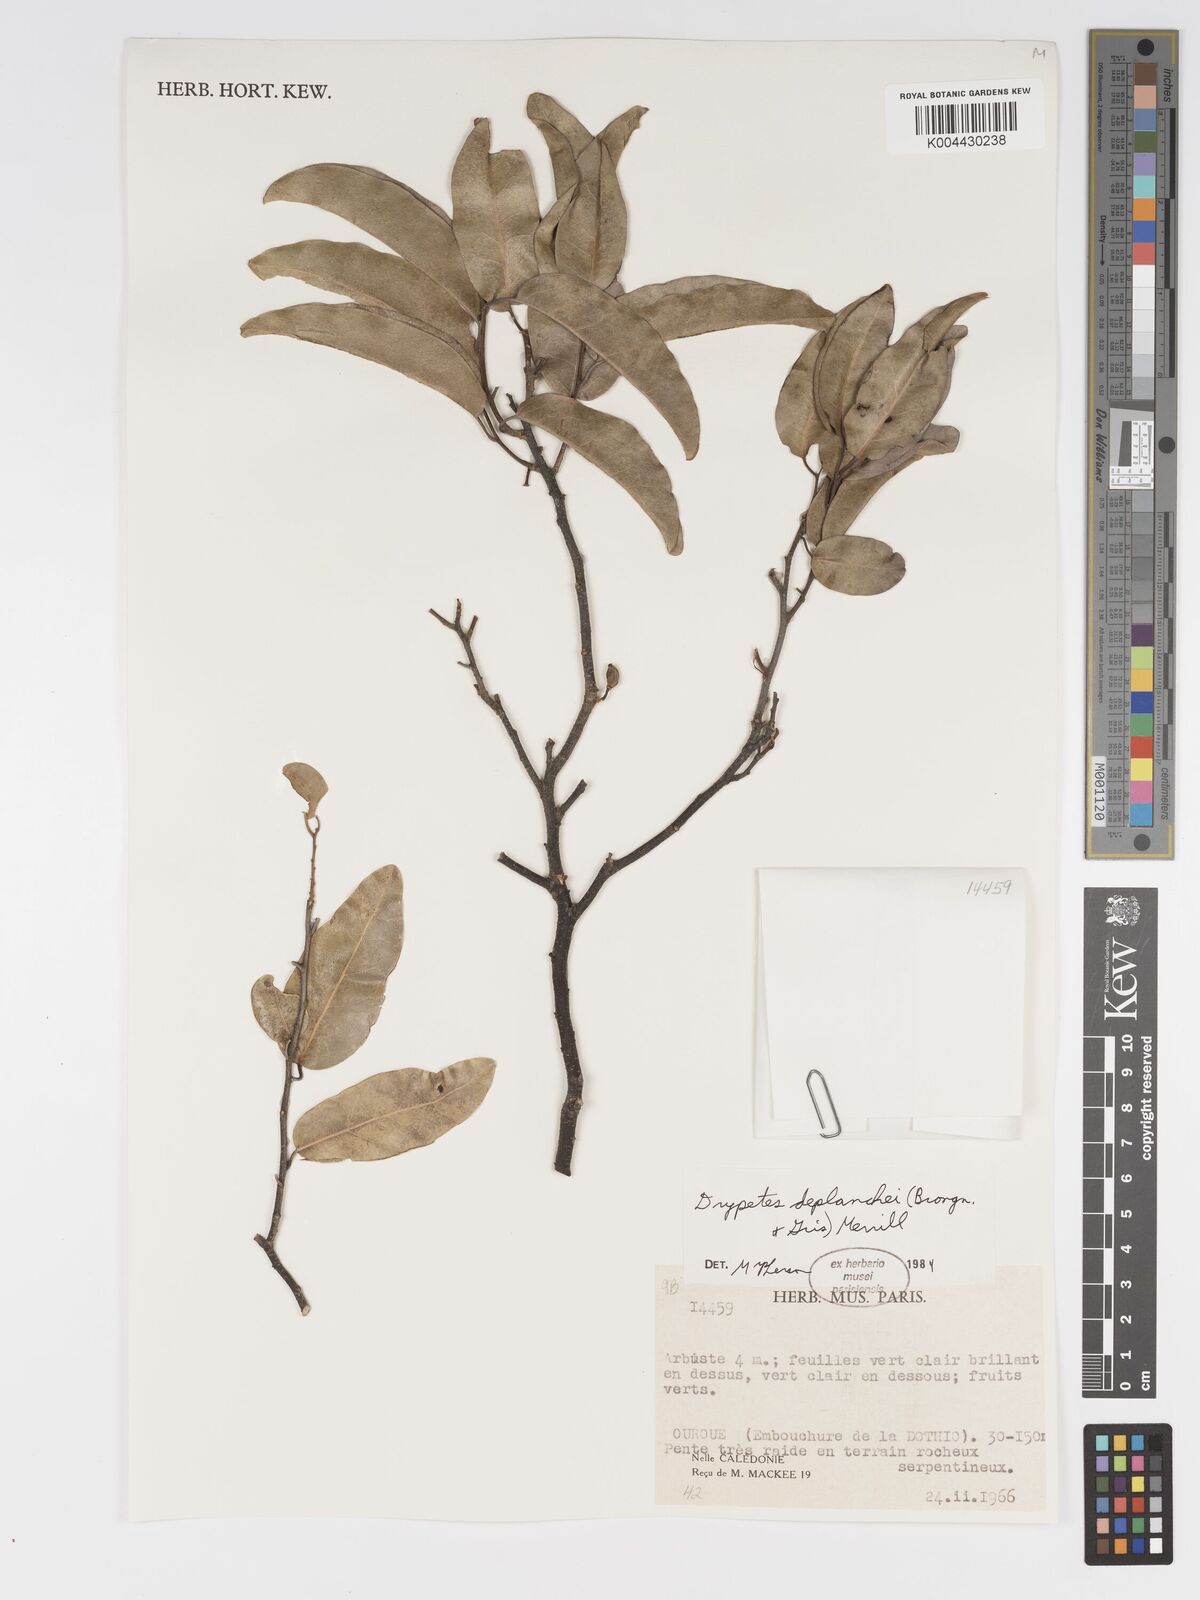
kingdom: Plantae
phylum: Tracheophyta
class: Magnoliopsida
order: Malpighiales
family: Putranjivaceae
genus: Drypetes
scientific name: Drypetes deplanchei
